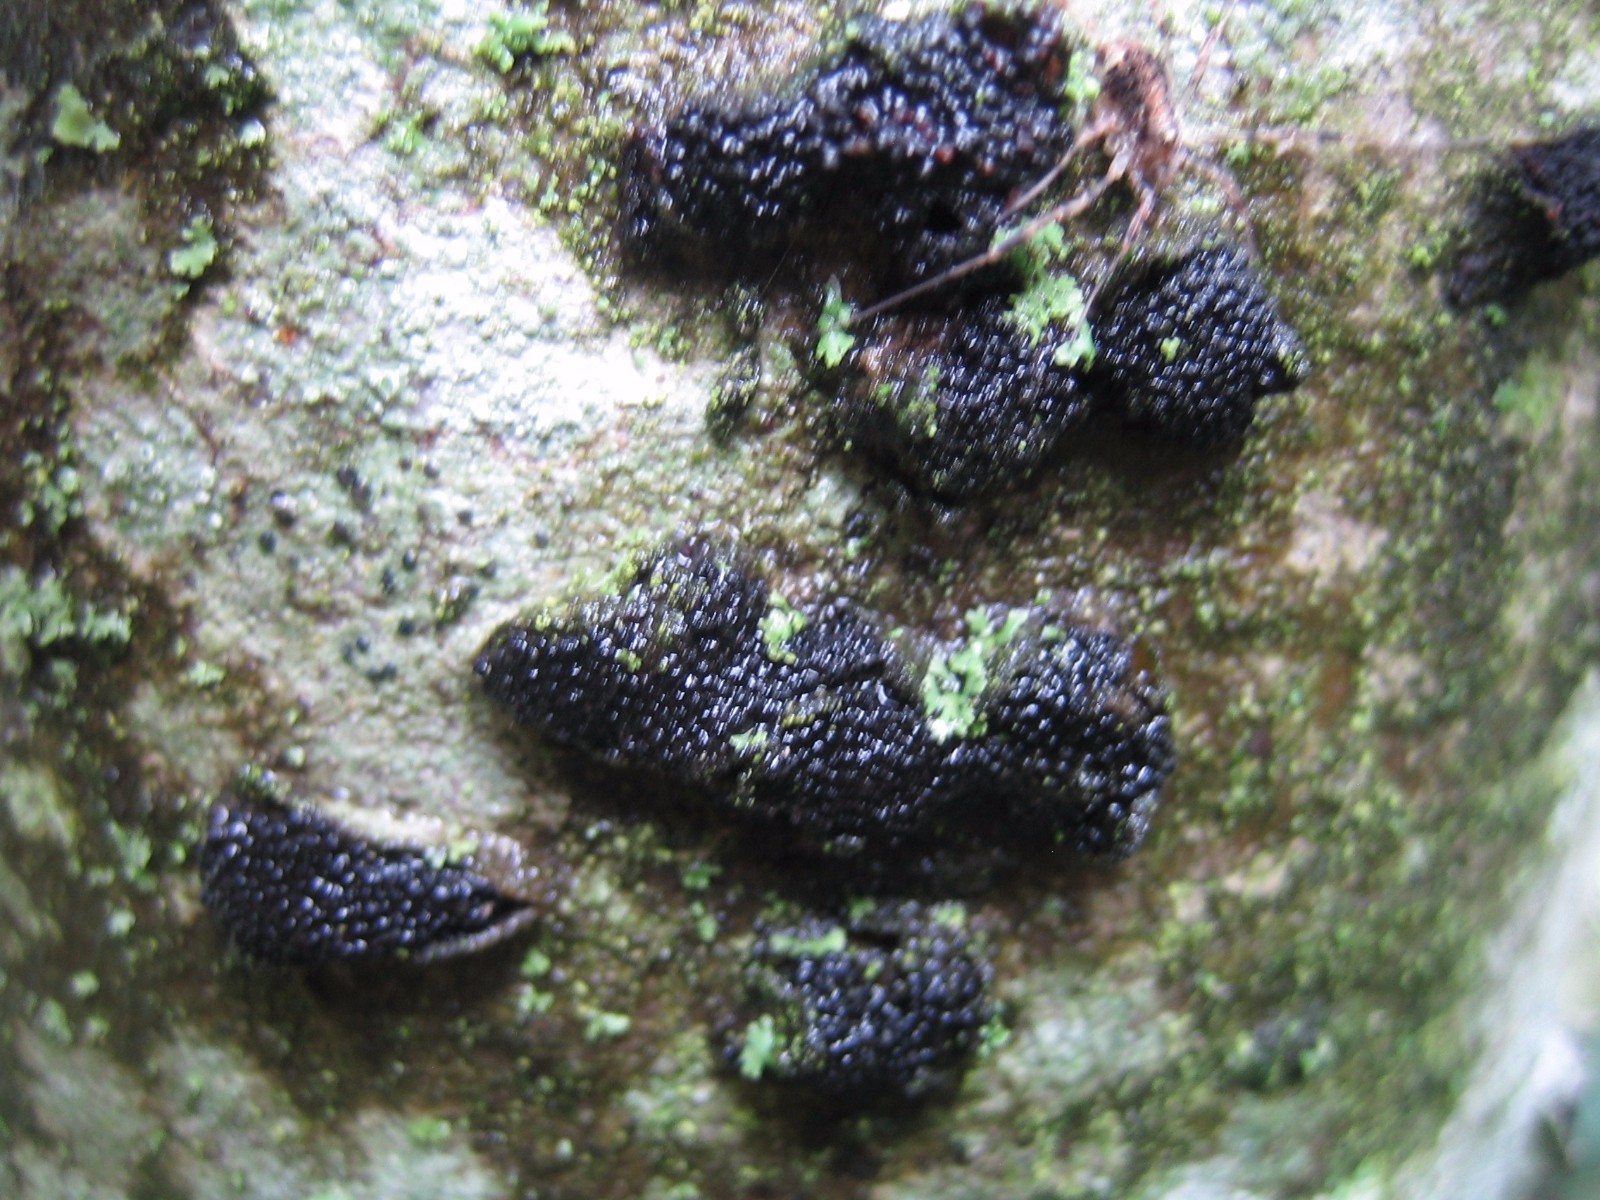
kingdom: Fungi
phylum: Ascomycota
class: Sordariomycetes
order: Xylariales
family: Diatrypaceae
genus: Eutypella
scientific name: Eutypella sorbi
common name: rønne-kulskorpe
